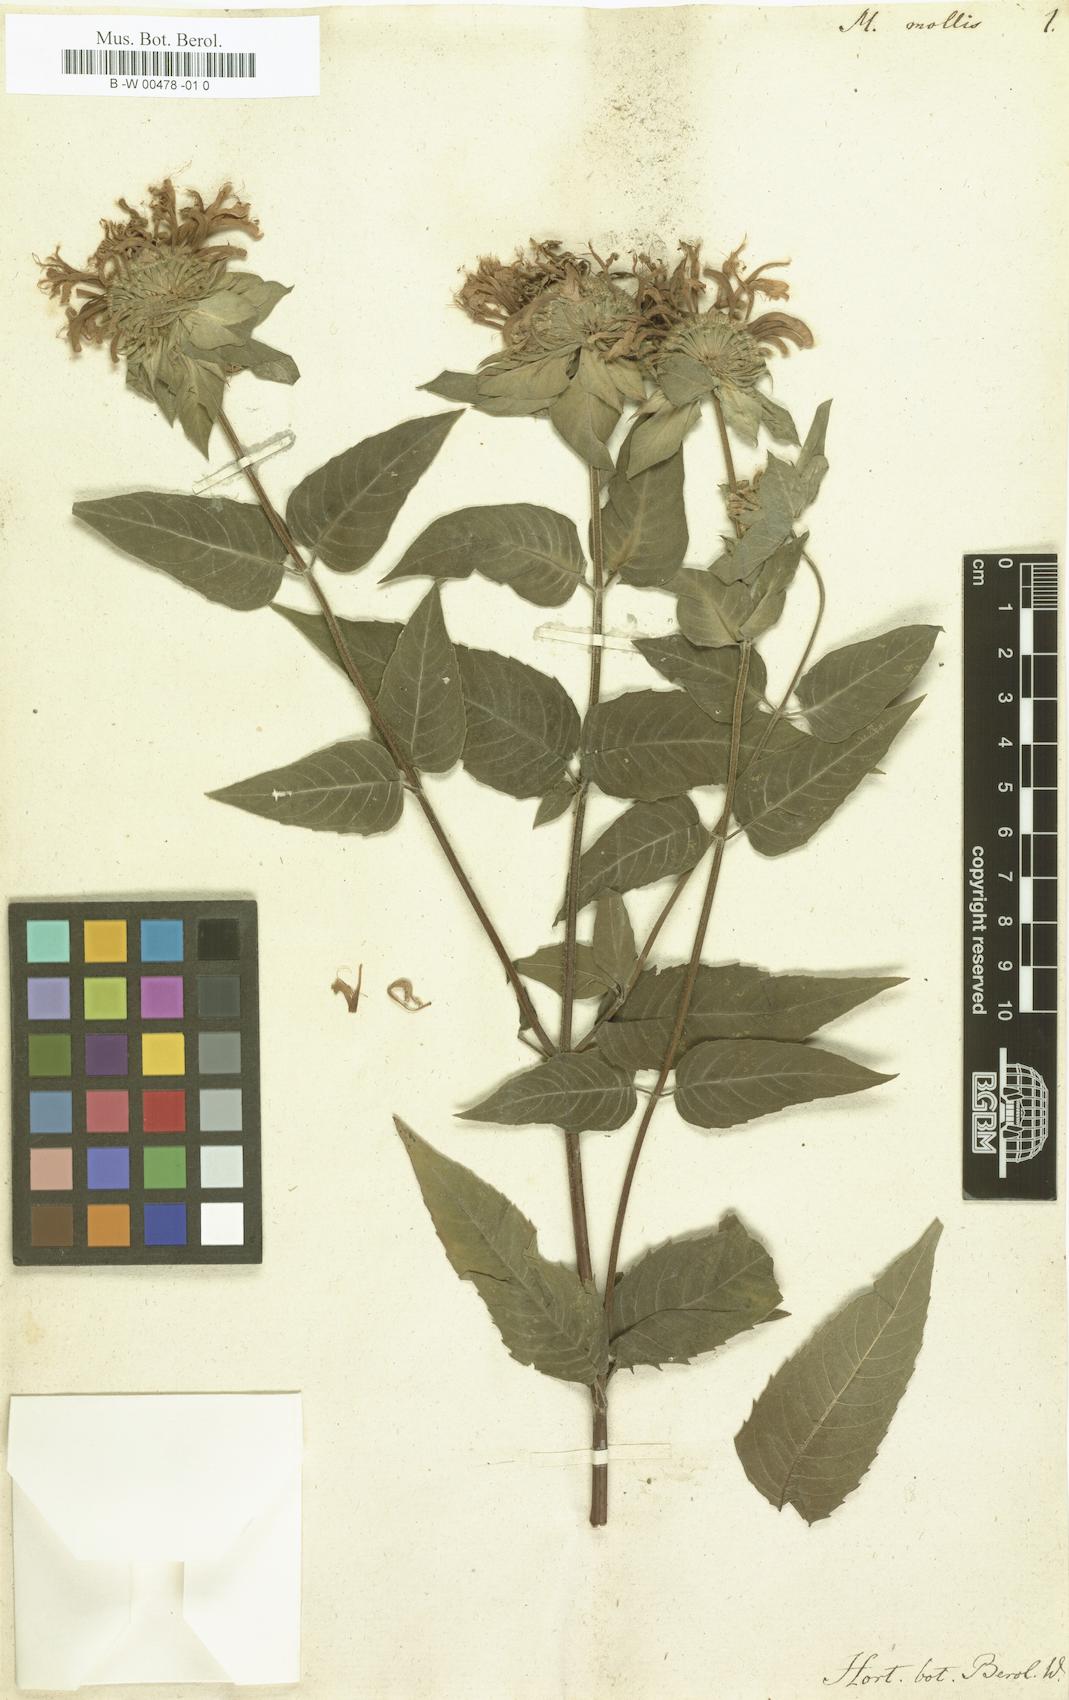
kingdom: Plantae
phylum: Tracheophyta
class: Magnoliopsida
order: Lamiales
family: Lamiaceae
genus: Monarda
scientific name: Monarda fistulosa
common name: Purple beebalm
